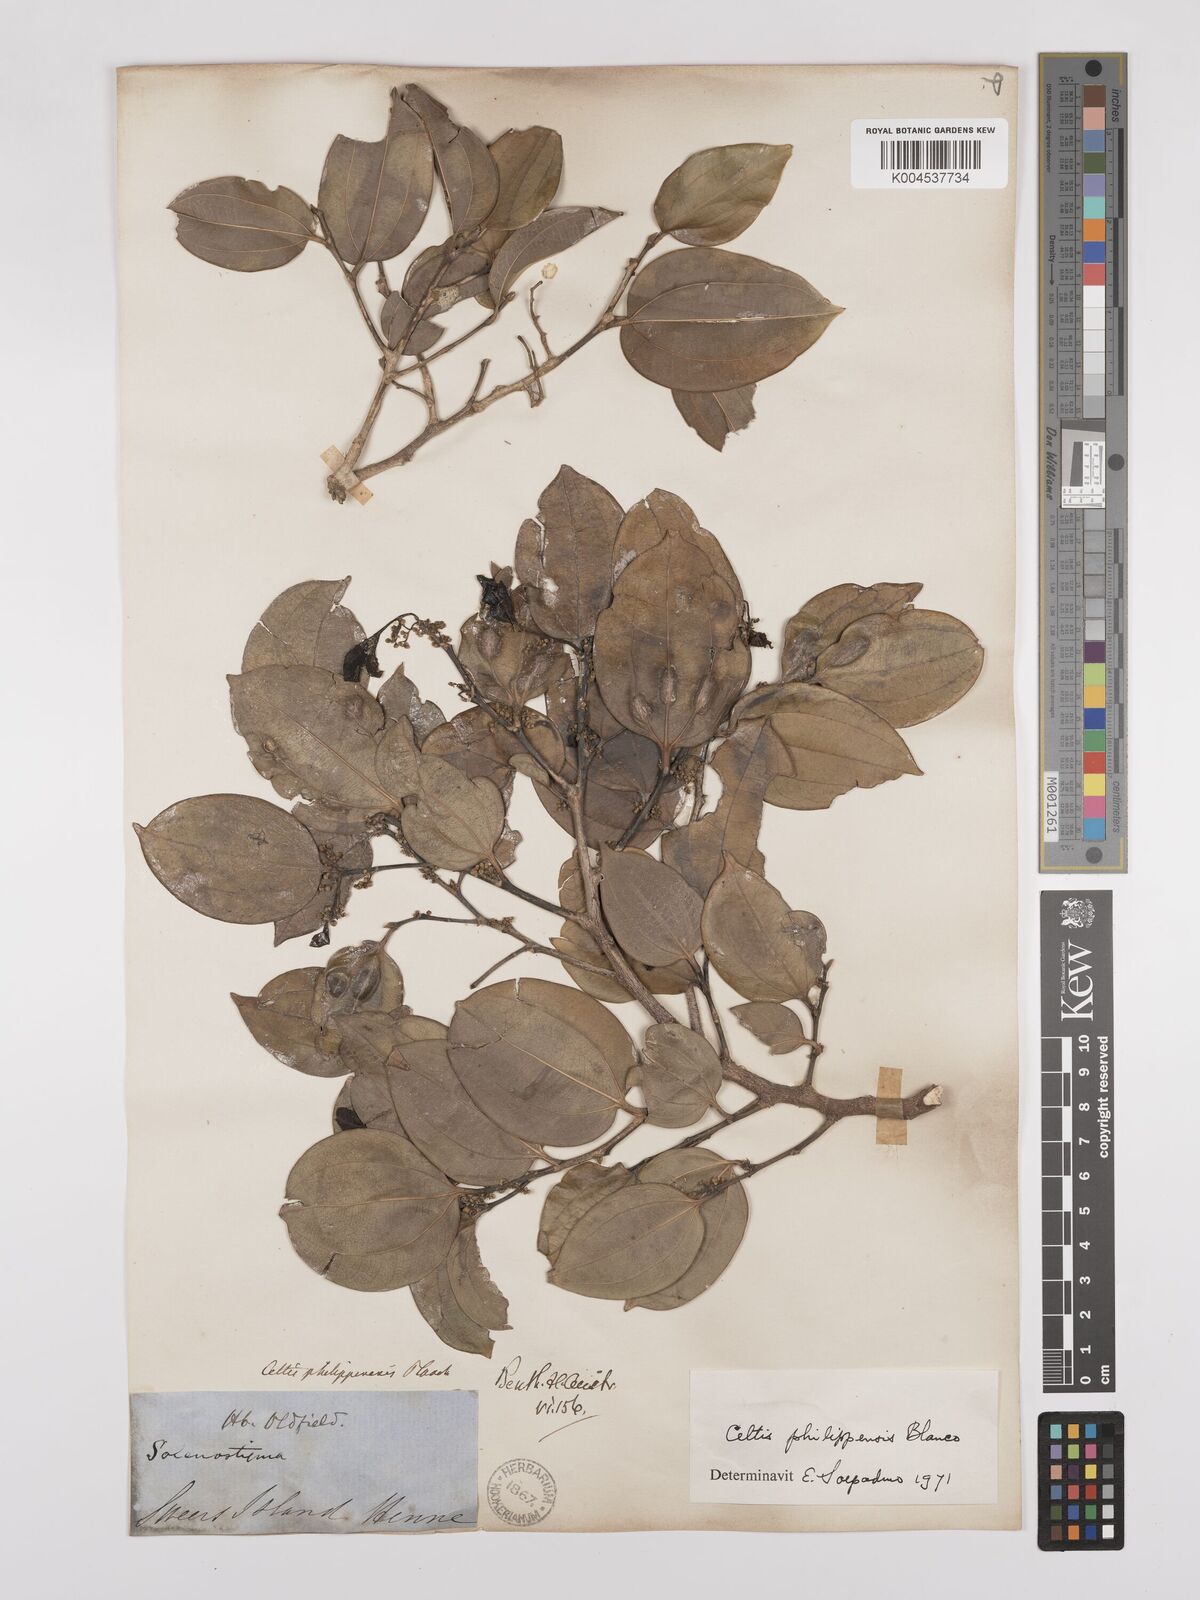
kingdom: Plantae
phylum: Tracheophyta
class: Magnoliopsida
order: Rosales
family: Cannabaceae
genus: Celtis
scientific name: Celtis philippensis
